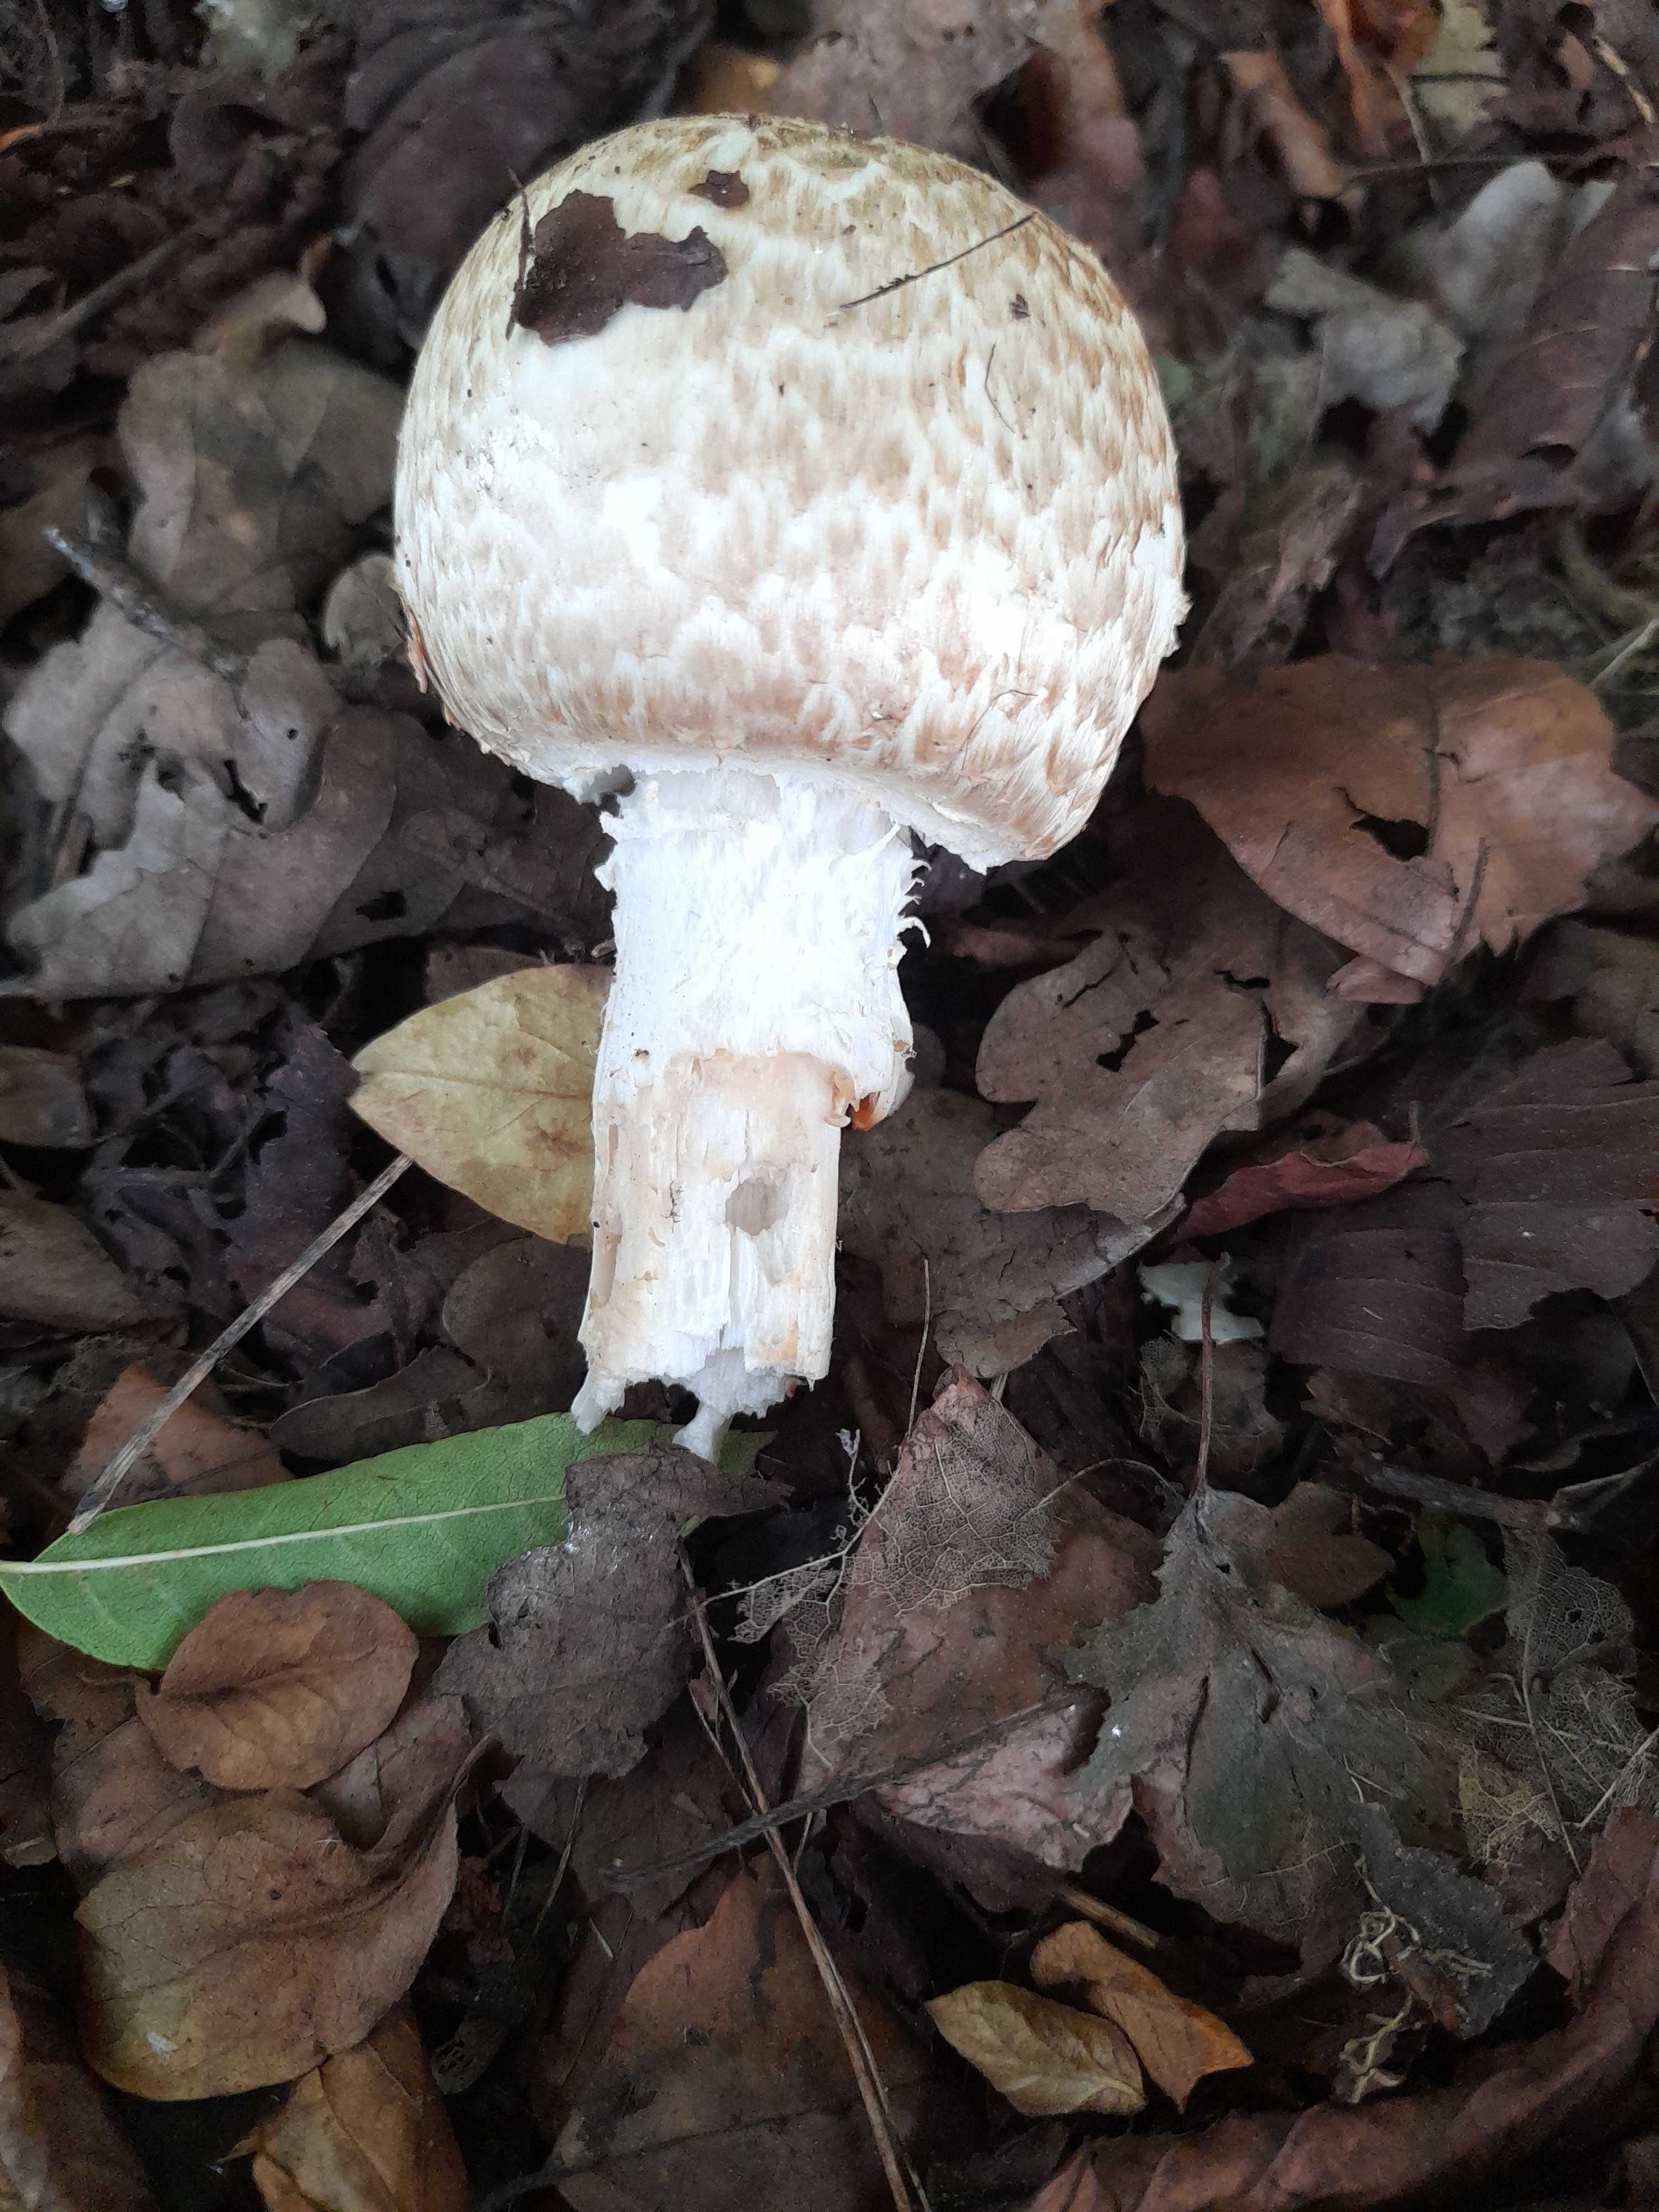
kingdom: Fungi
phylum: Basidiomycota
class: Agaricomycetes
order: Agaricales
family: Agaricaceae
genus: Agaricus
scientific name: Agaricus augustus
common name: prægtig champignon
